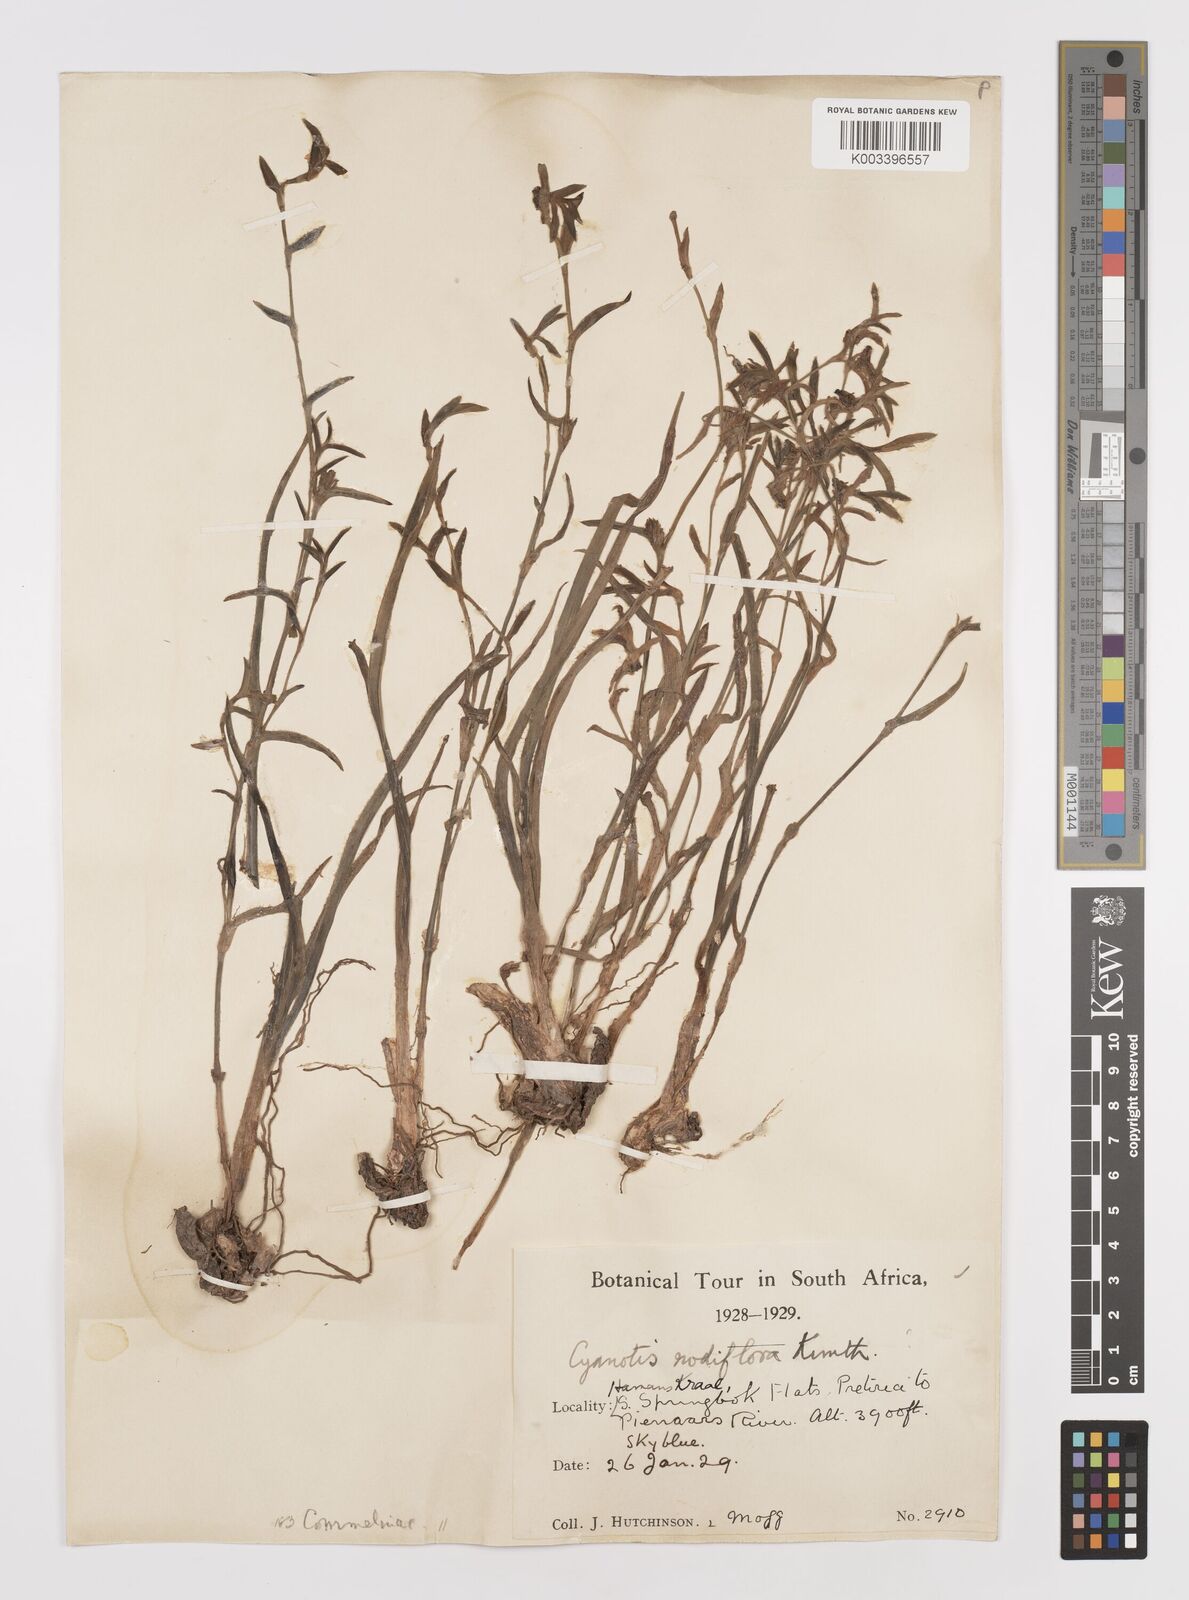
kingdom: Plantae
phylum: Tracheophyta
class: Liliopsida
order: Commelinales
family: Commelinaceae
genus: Cyanotis
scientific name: Cyanotis speciosa
